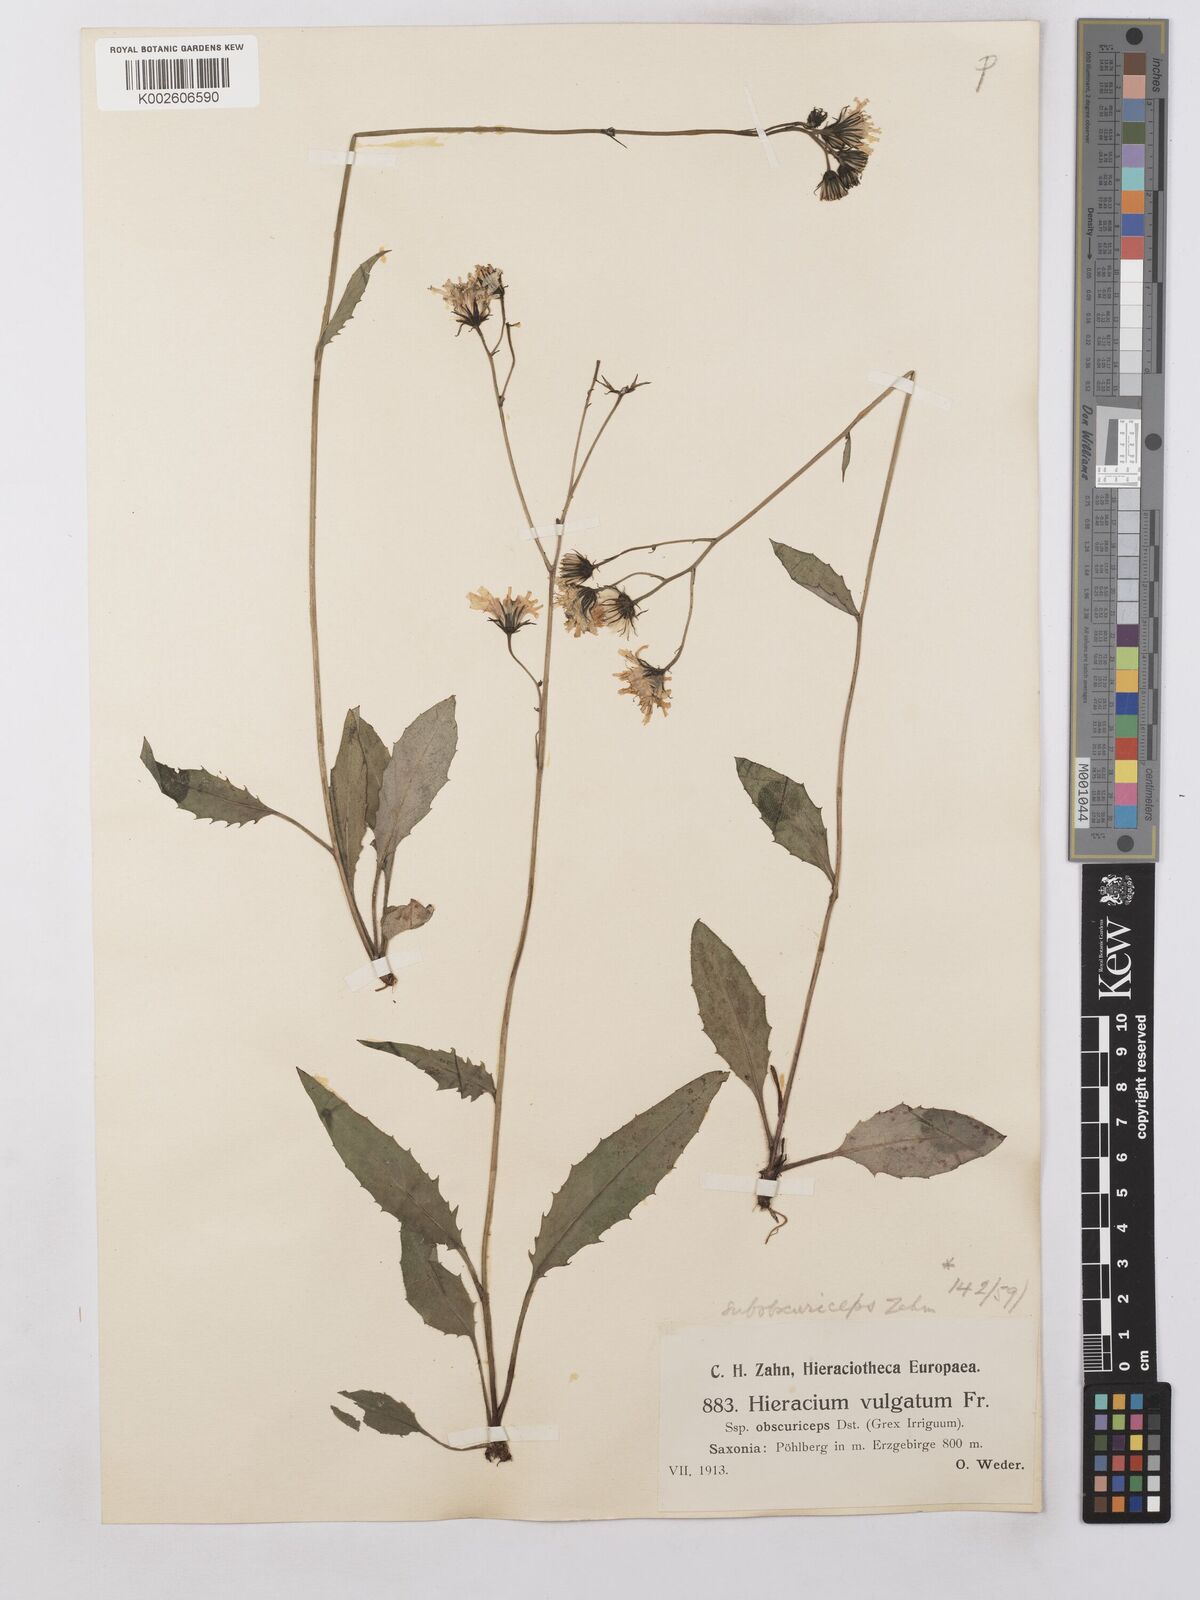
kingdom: Plantae
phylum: Tracheophyta
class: Magnoliopsida
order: Asterales
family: Asteraceae
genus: Hieracium
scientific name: Hieracium lachenalii
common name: Common hawkweed
